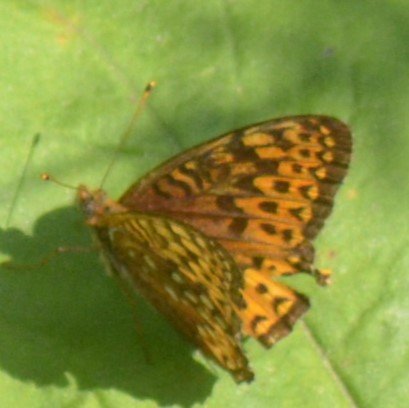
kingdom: Animalia
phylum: Arthropoda
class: Insecta
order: Lepidoptera
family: Nymphalidae
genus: Speyeria
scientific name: Speyeria atlantis
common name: Atlantis Fritillary
